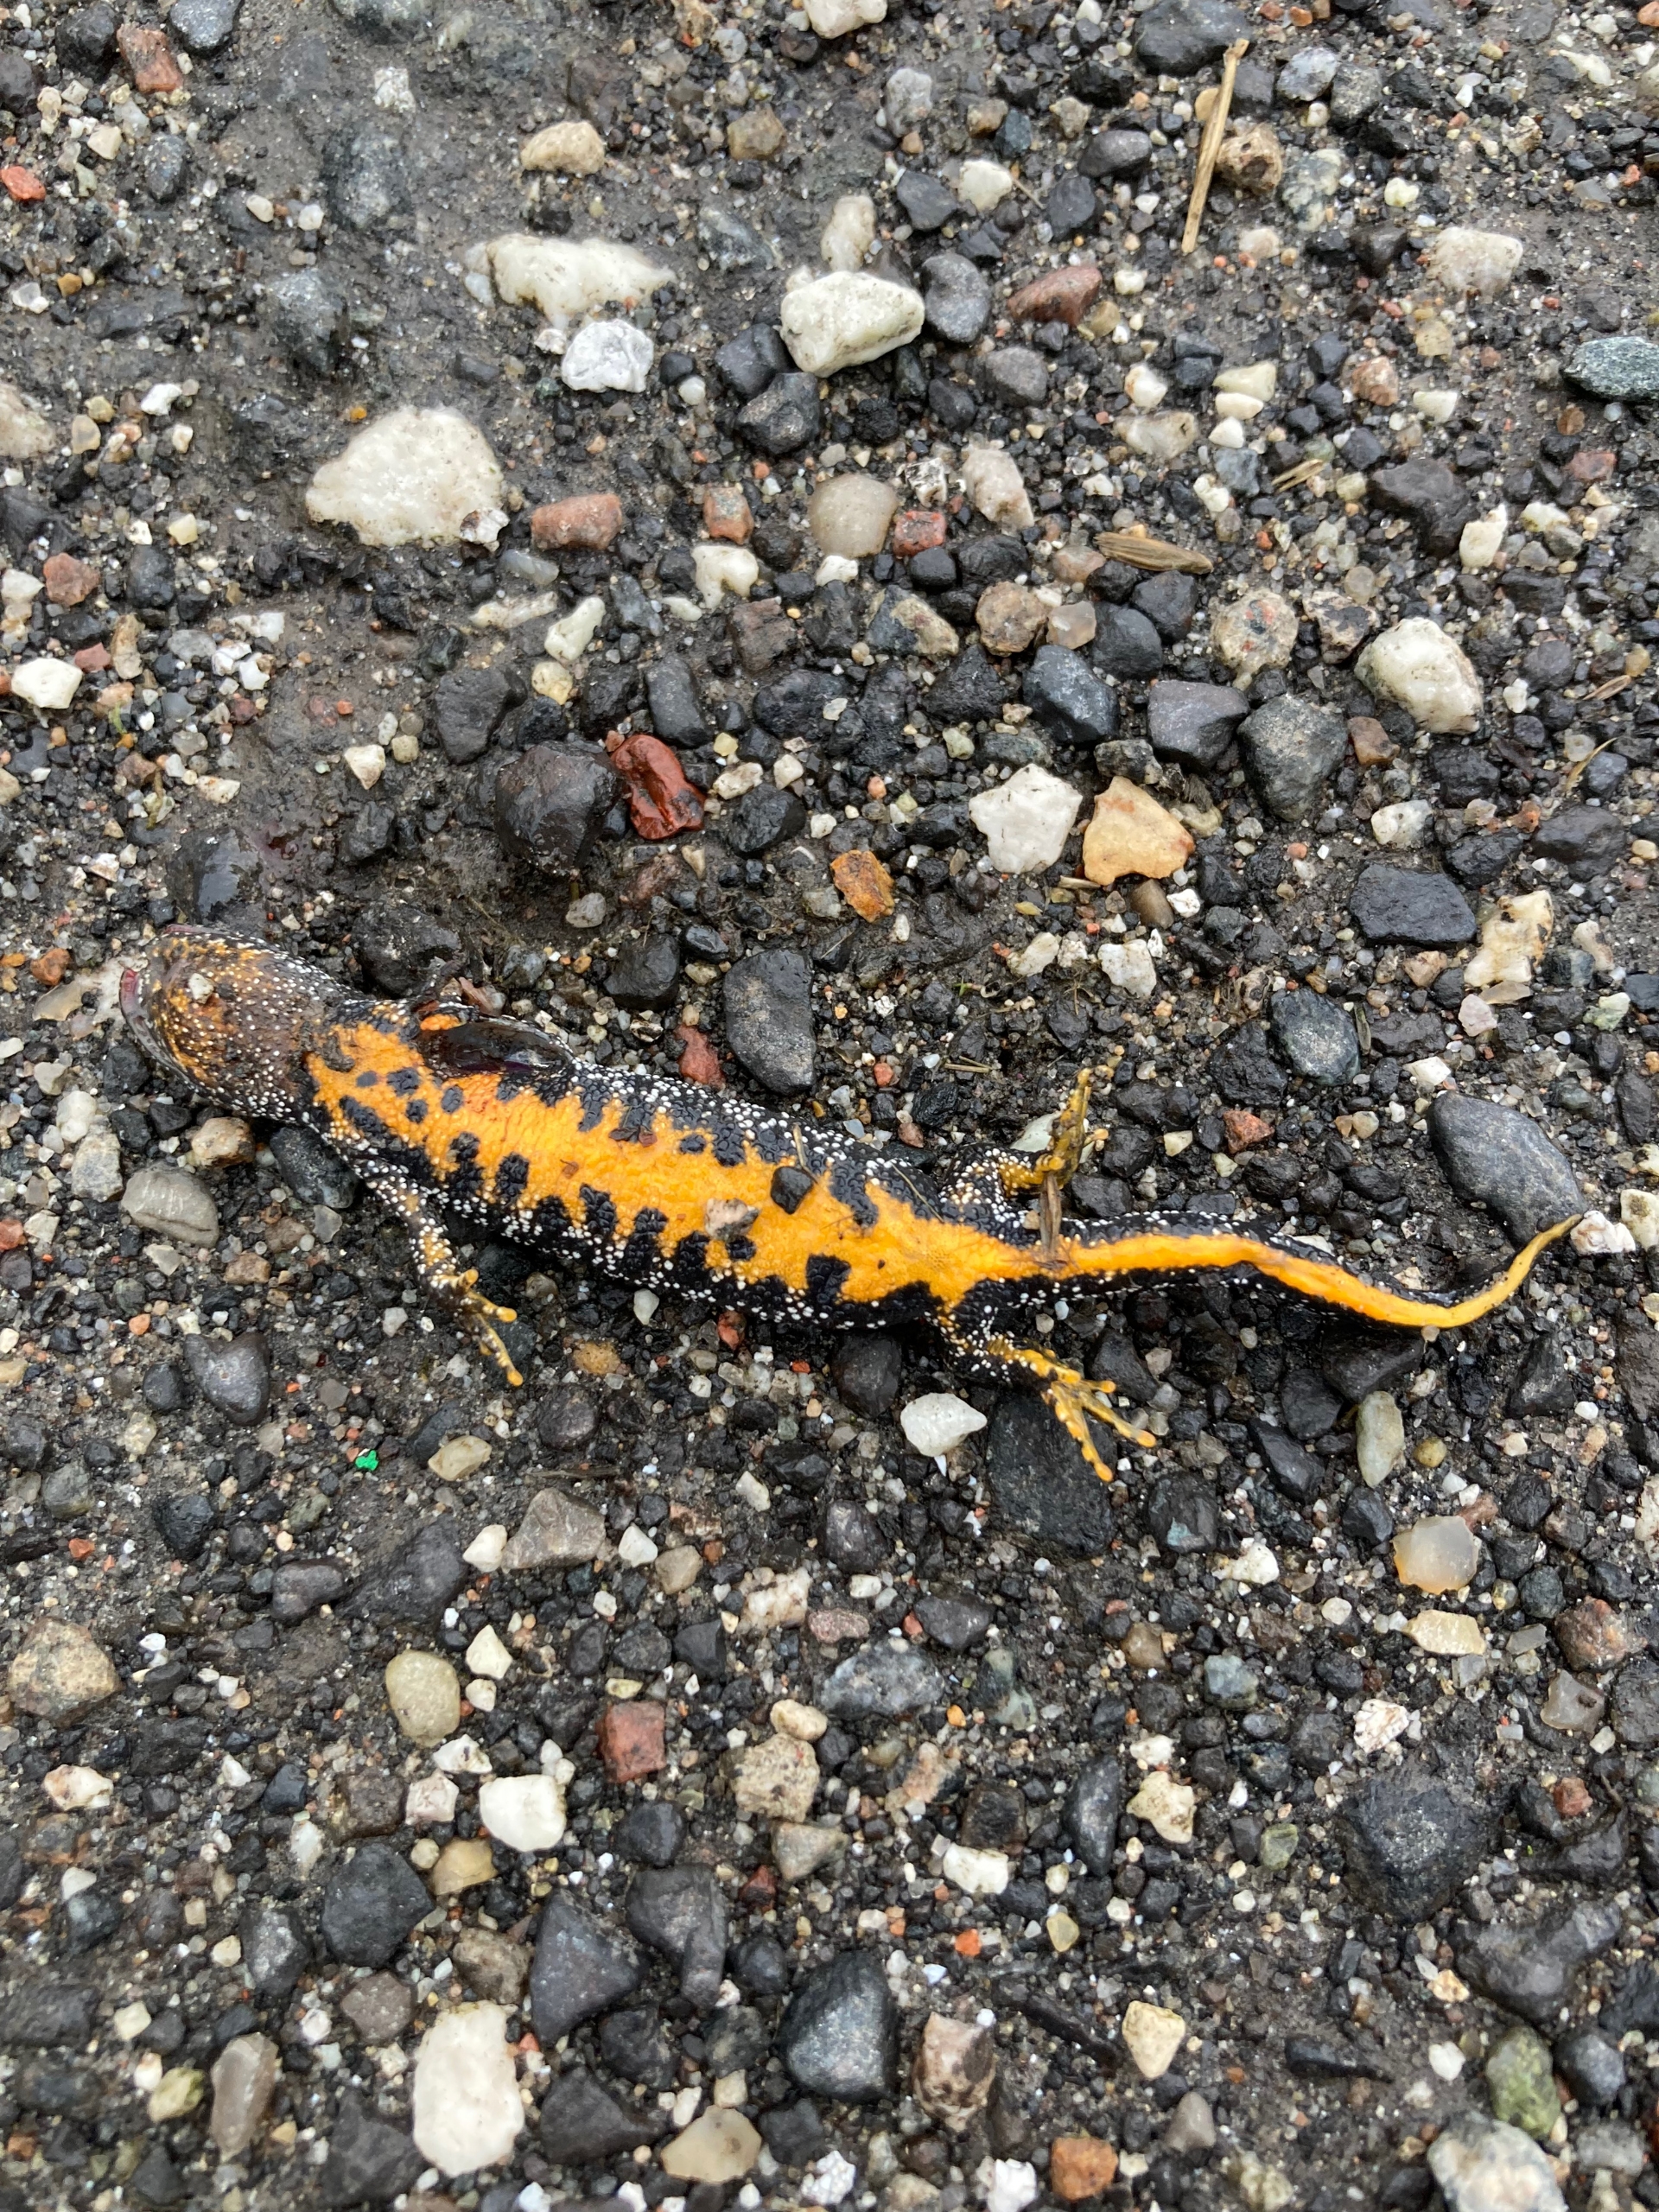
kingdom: Animalia
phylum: Chordata
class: Amphibia
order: Caudata
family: Salamandridae
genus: Triturus
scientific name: Triturus cristatus
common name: Stor vandsalamander
